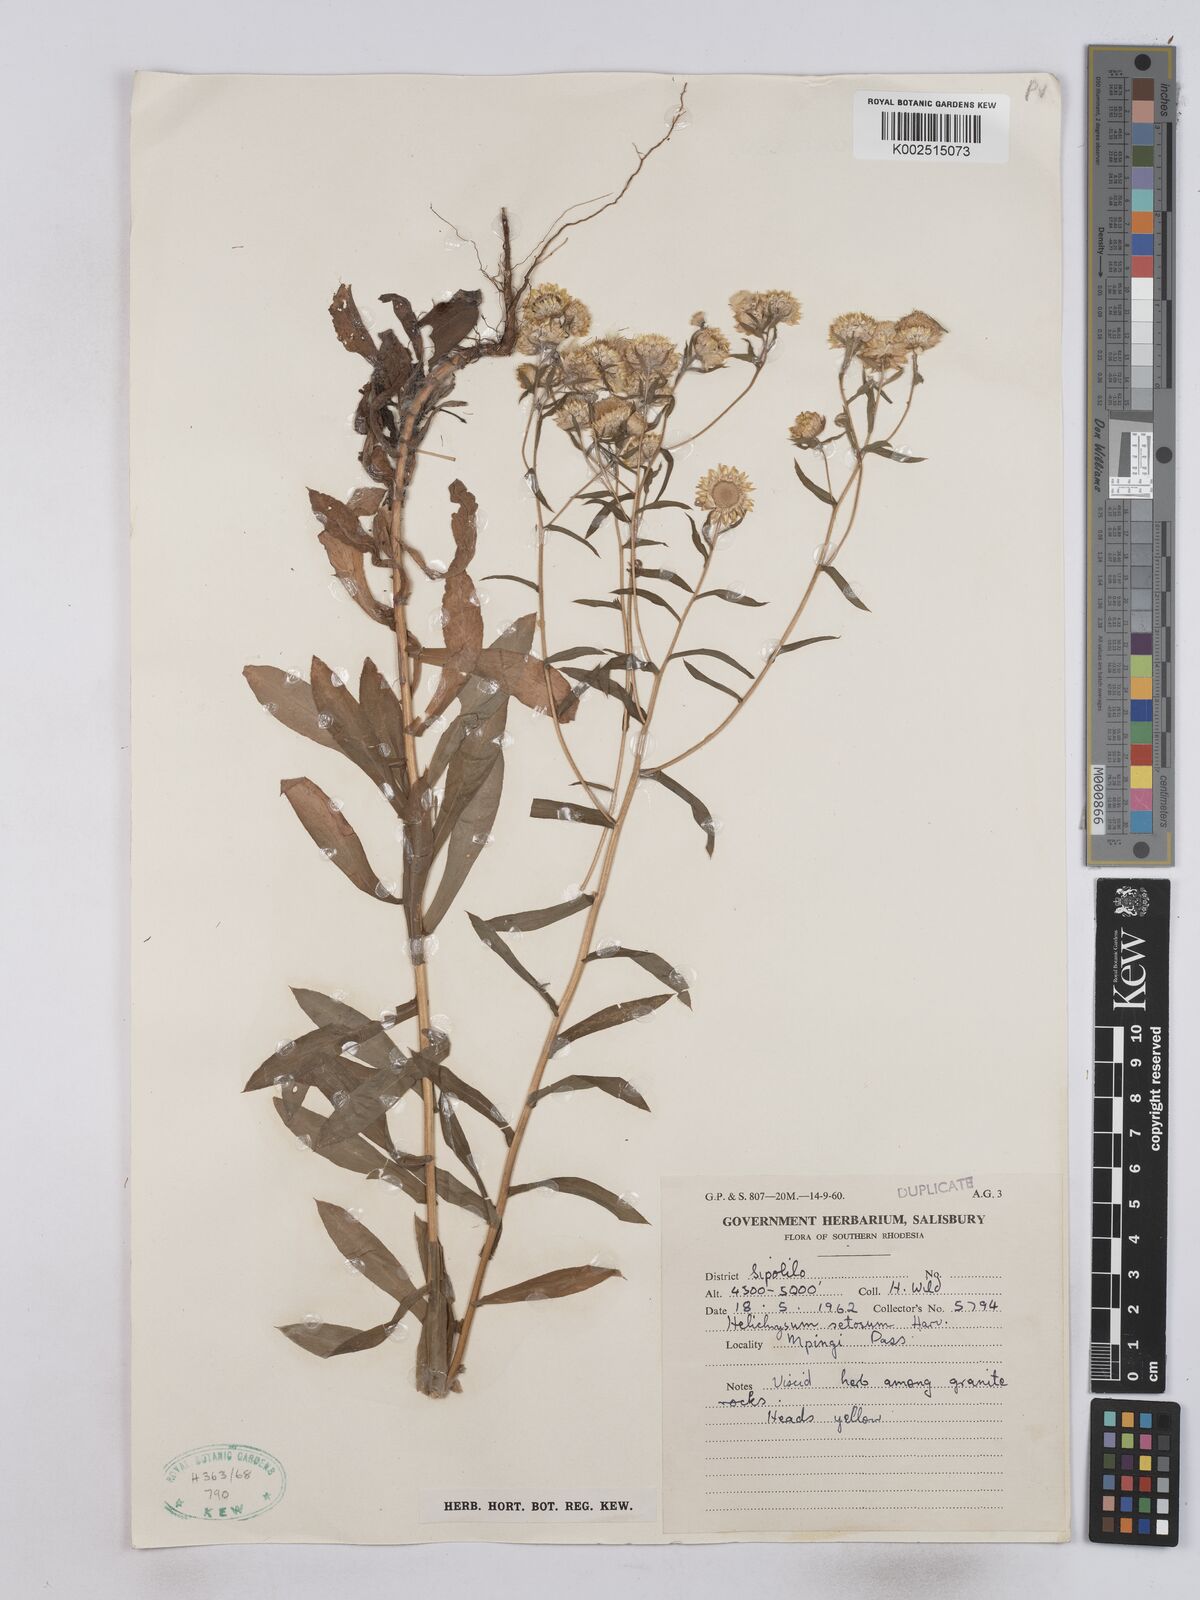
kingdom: Plantae
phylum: Tracheophyta
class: Magnoliopsida
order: Asterales
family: Asteraceae
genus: Helichrysum
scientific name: Helichrysum setosum
